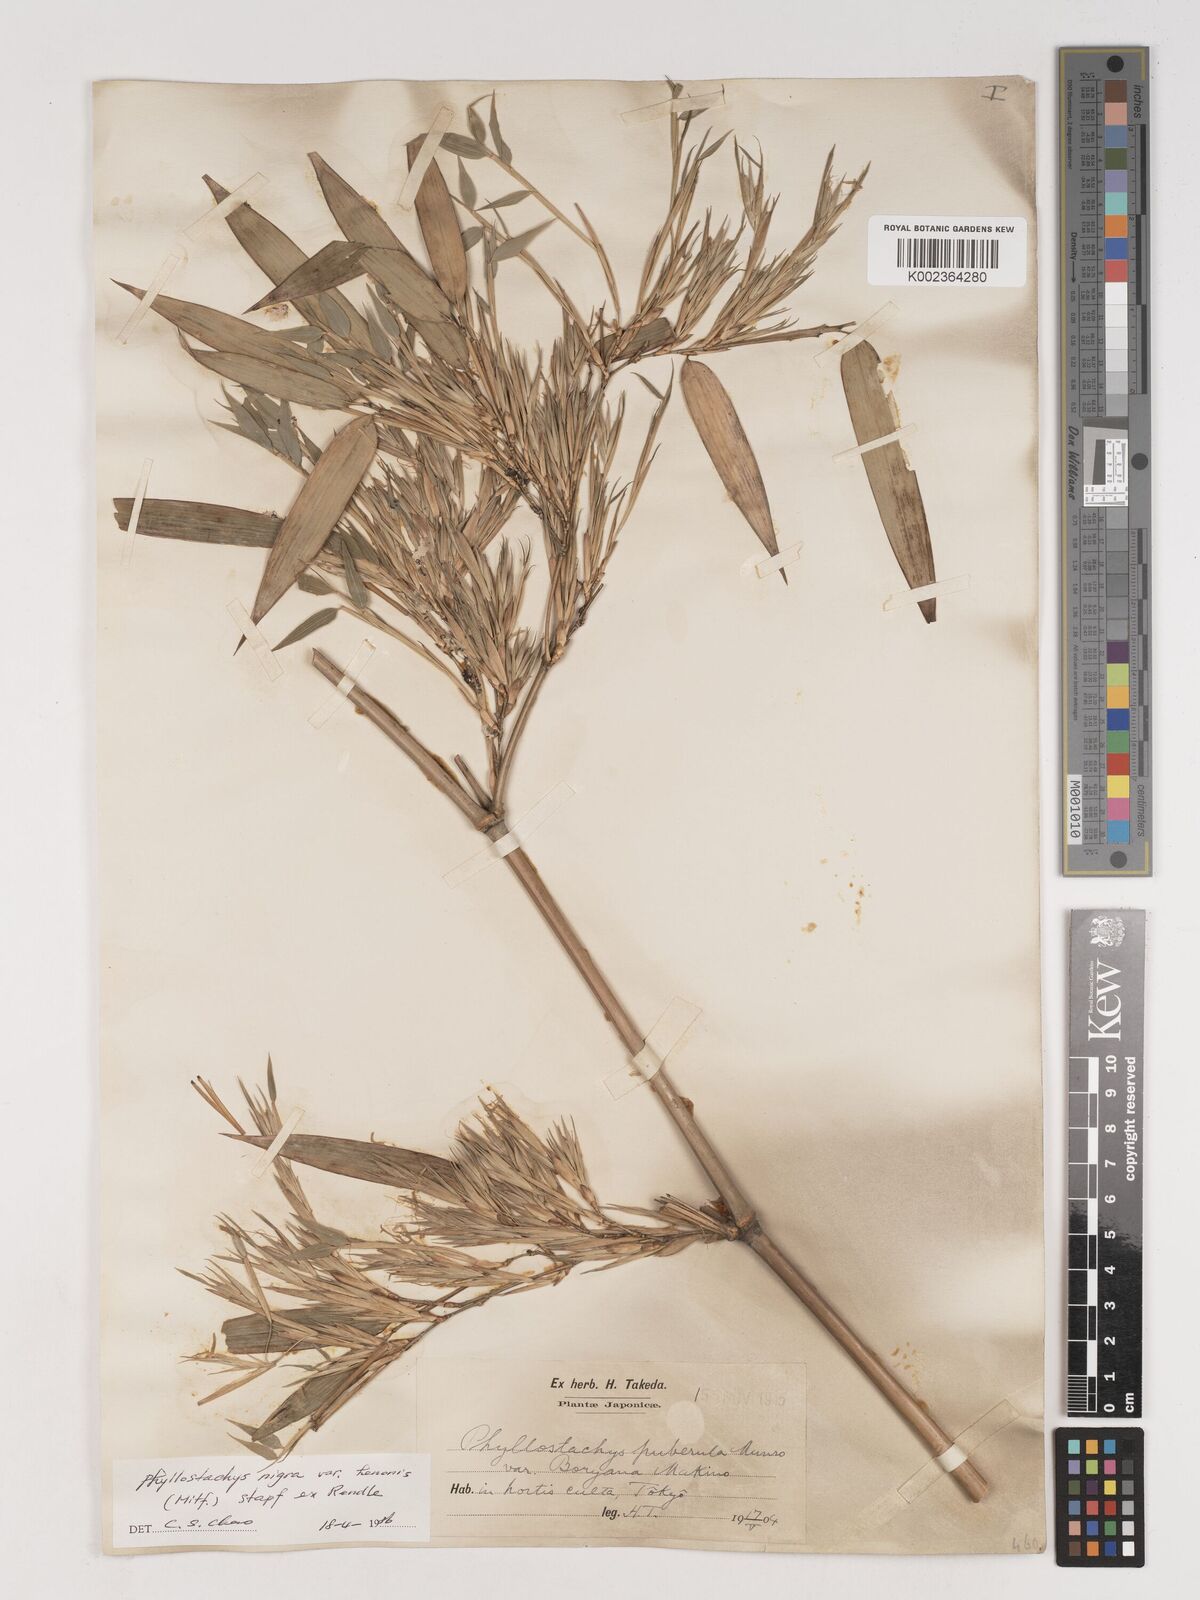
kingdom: Plantae
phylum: Tracheophyta
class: Liliopsida
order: Poales
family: Poaceae
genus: Phyllostachys
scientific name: Phyllostachys nigra
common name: Black bamboo
